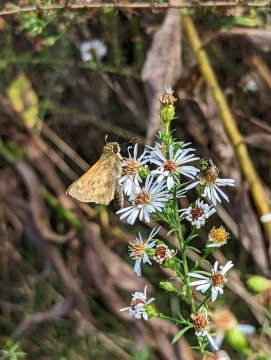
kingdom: Animalia
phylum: Arthropoda
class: Insecta
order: Lepidoptera
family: Hesperiidae
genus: Atalopedes
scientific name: Atalopedes campestris
